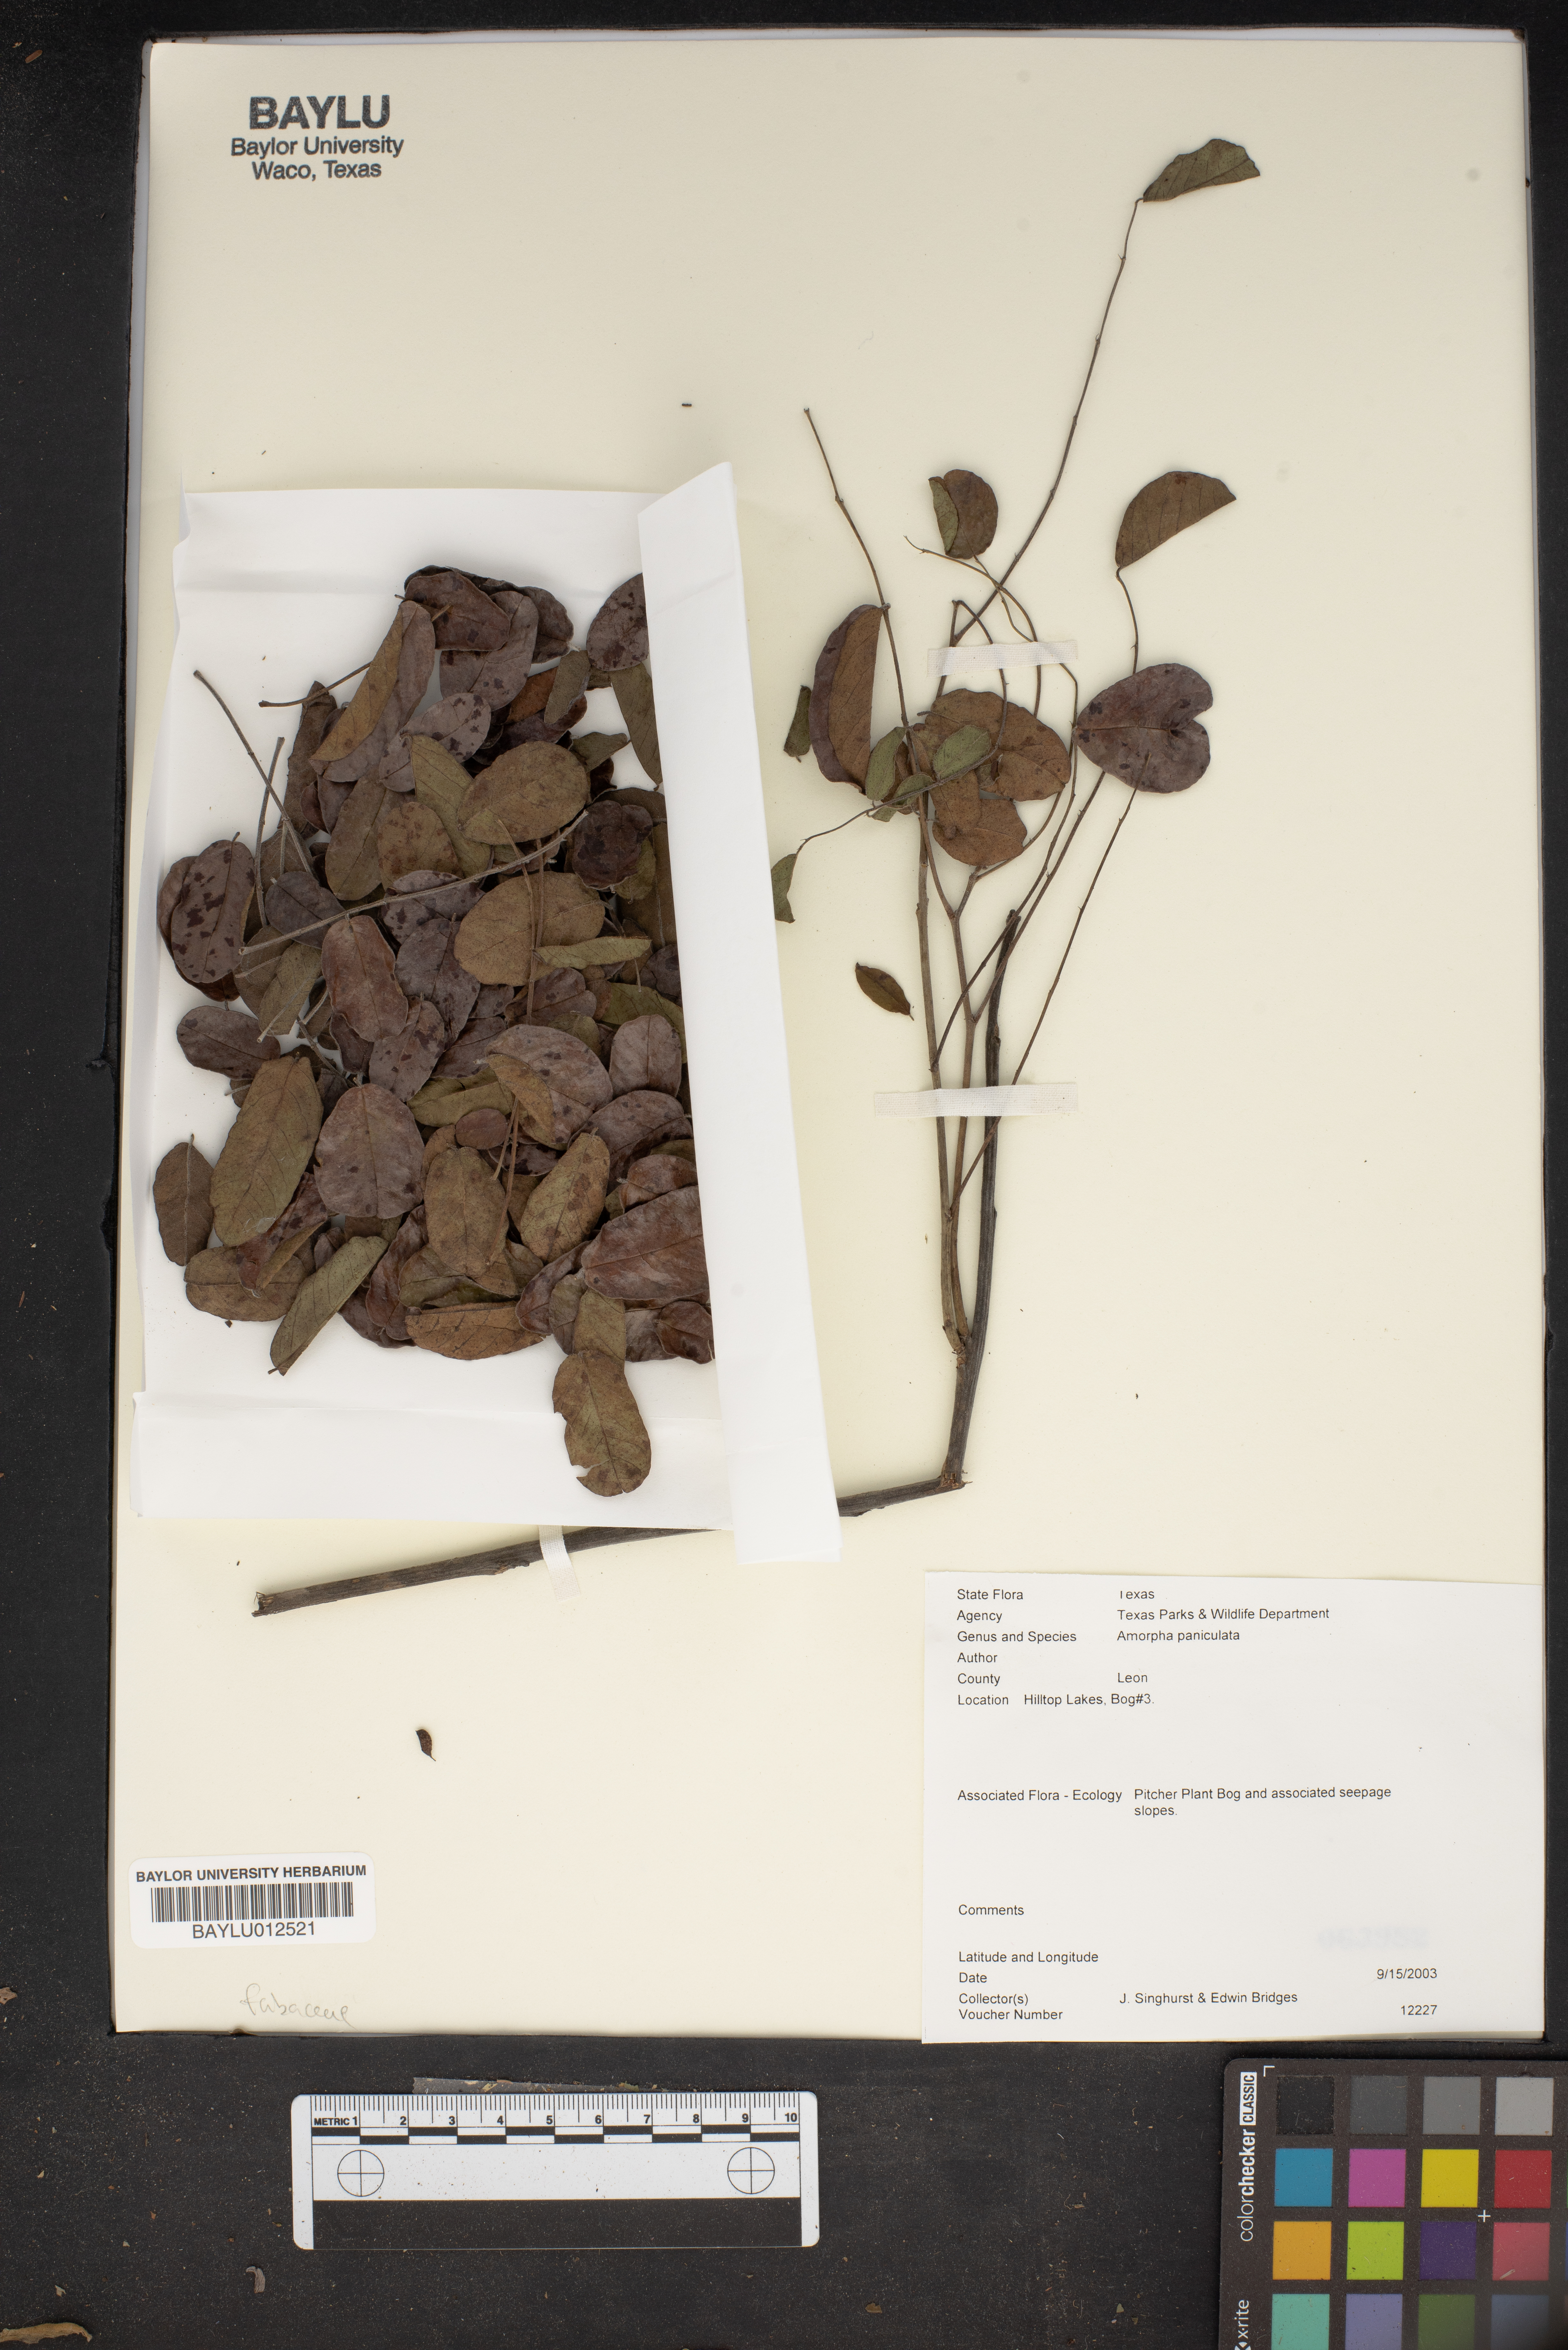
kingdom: Plantae
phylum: Tracheophyta
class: Magnoliopsida
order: Fabales
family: Fabaceae
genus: Amorpha
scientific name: Amorpha paniculata
